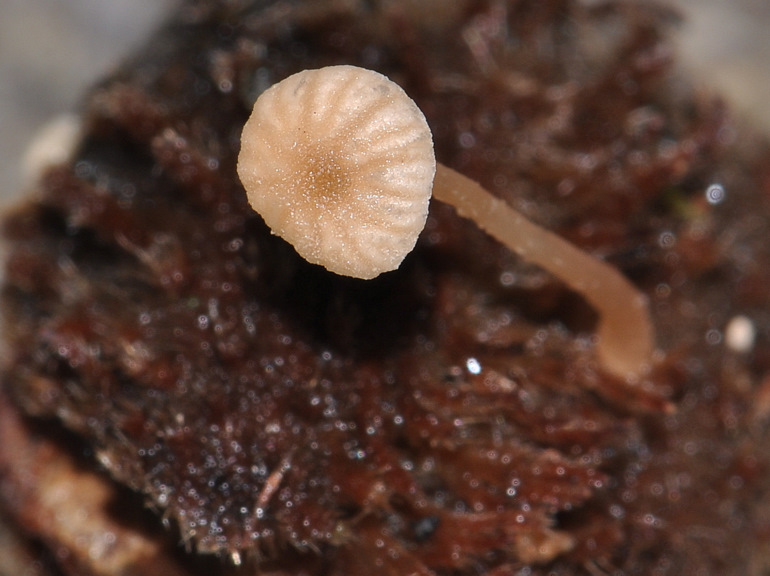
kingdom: Fungi
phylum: Basidiomycota
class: Agaricomycetes
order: Agaricales
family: Tubariaceae
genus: Flammulaster
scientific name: Flammulaster carpophilus
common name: blegrosa grynskælhat
